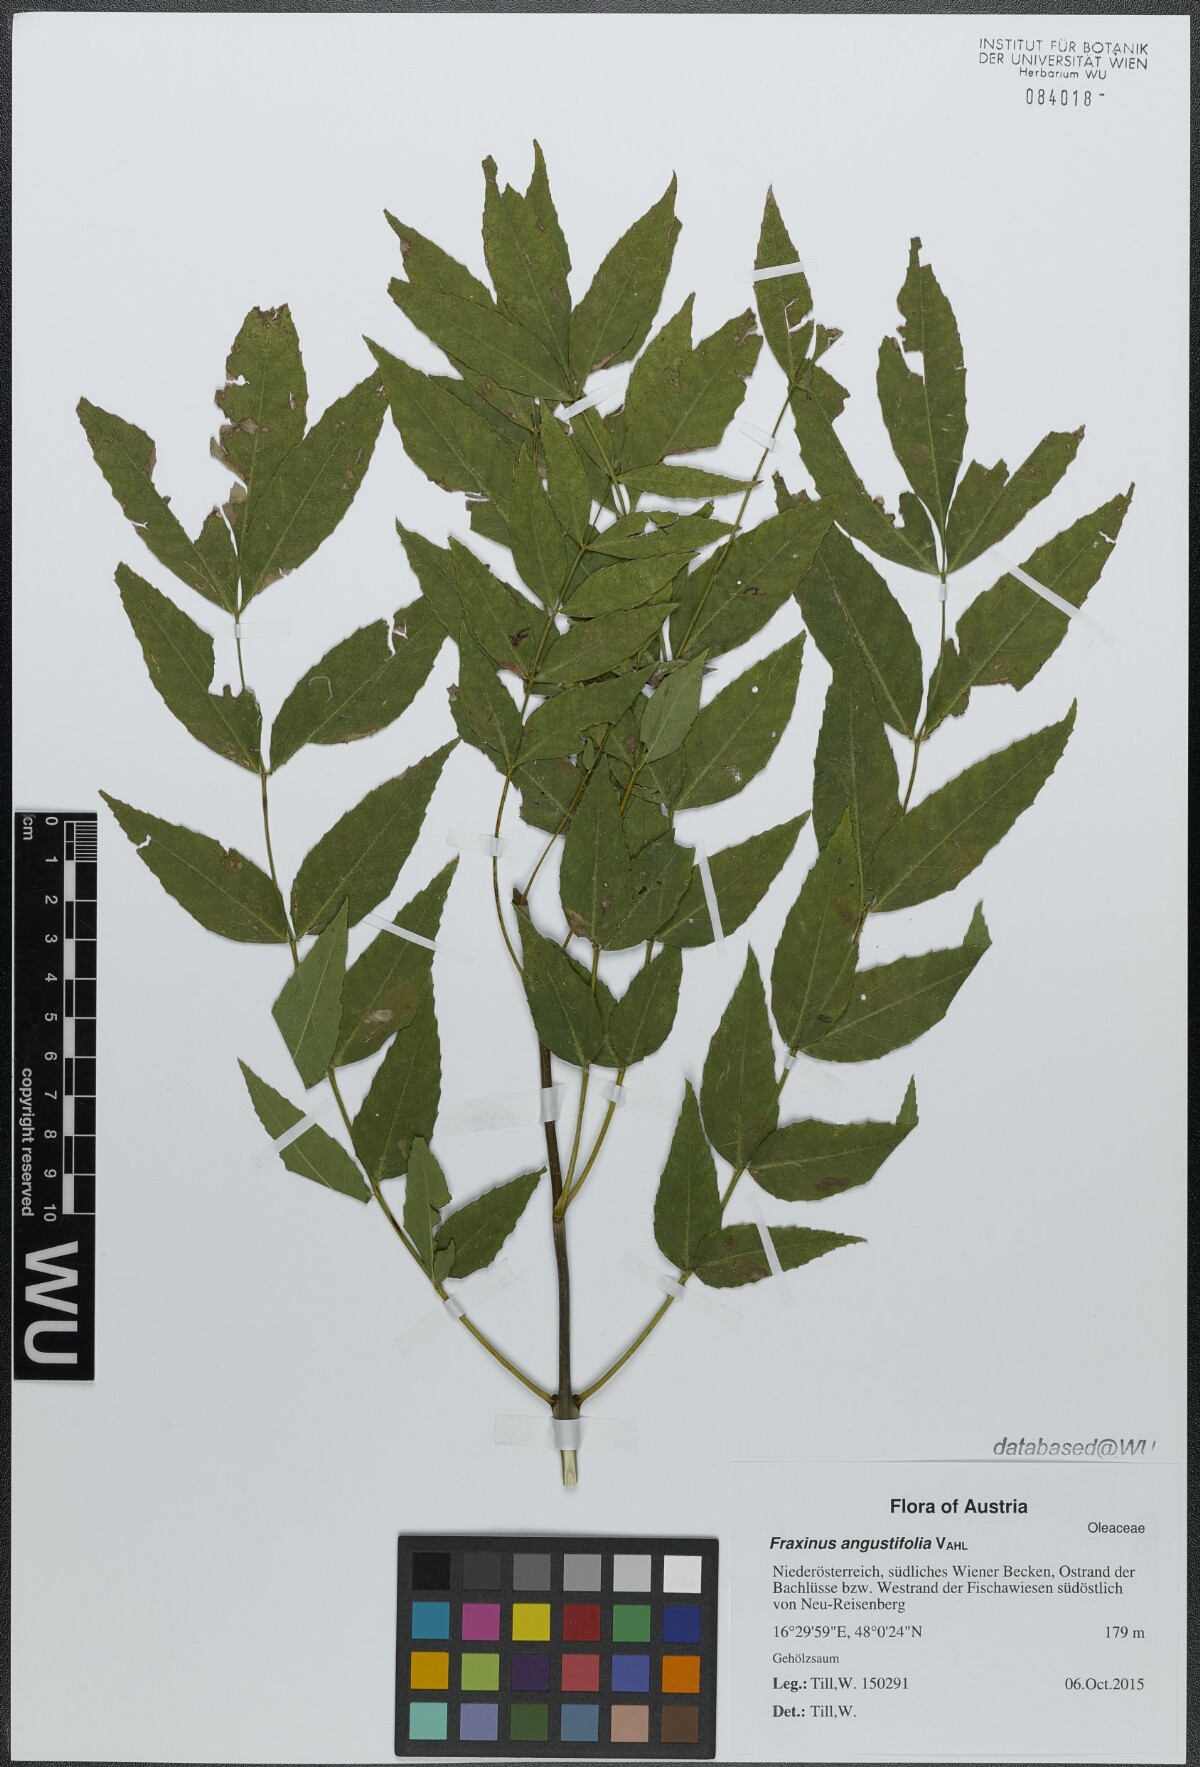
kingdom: Plantae
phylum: Tracheophyta
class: Magnoliopsida
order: Lamiales
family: Oleaceae
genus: Fraxinus
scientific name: Fraxinus angustifolia
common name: Narrow-leafed ash
